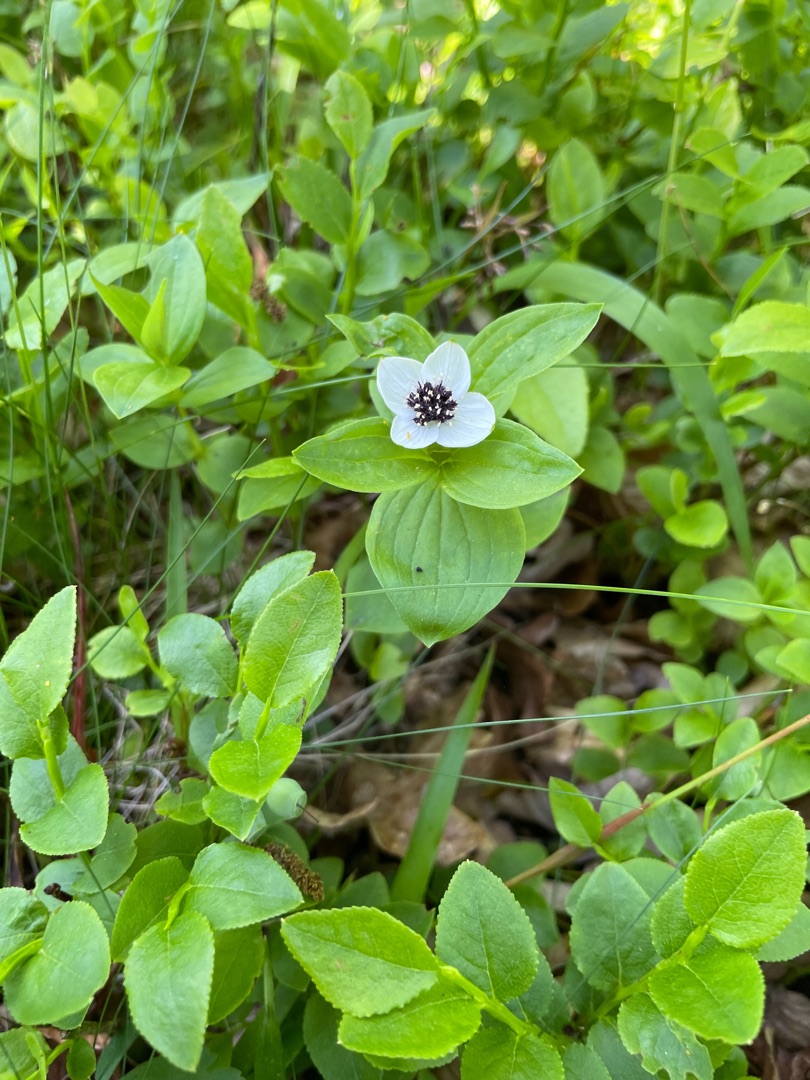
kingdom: Plantae
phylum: Tracheophyta
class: Magnoliopsida
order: Cornales
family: Cornaceae
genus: Cornus
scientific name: Cornus suecica
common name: Hønsebær
